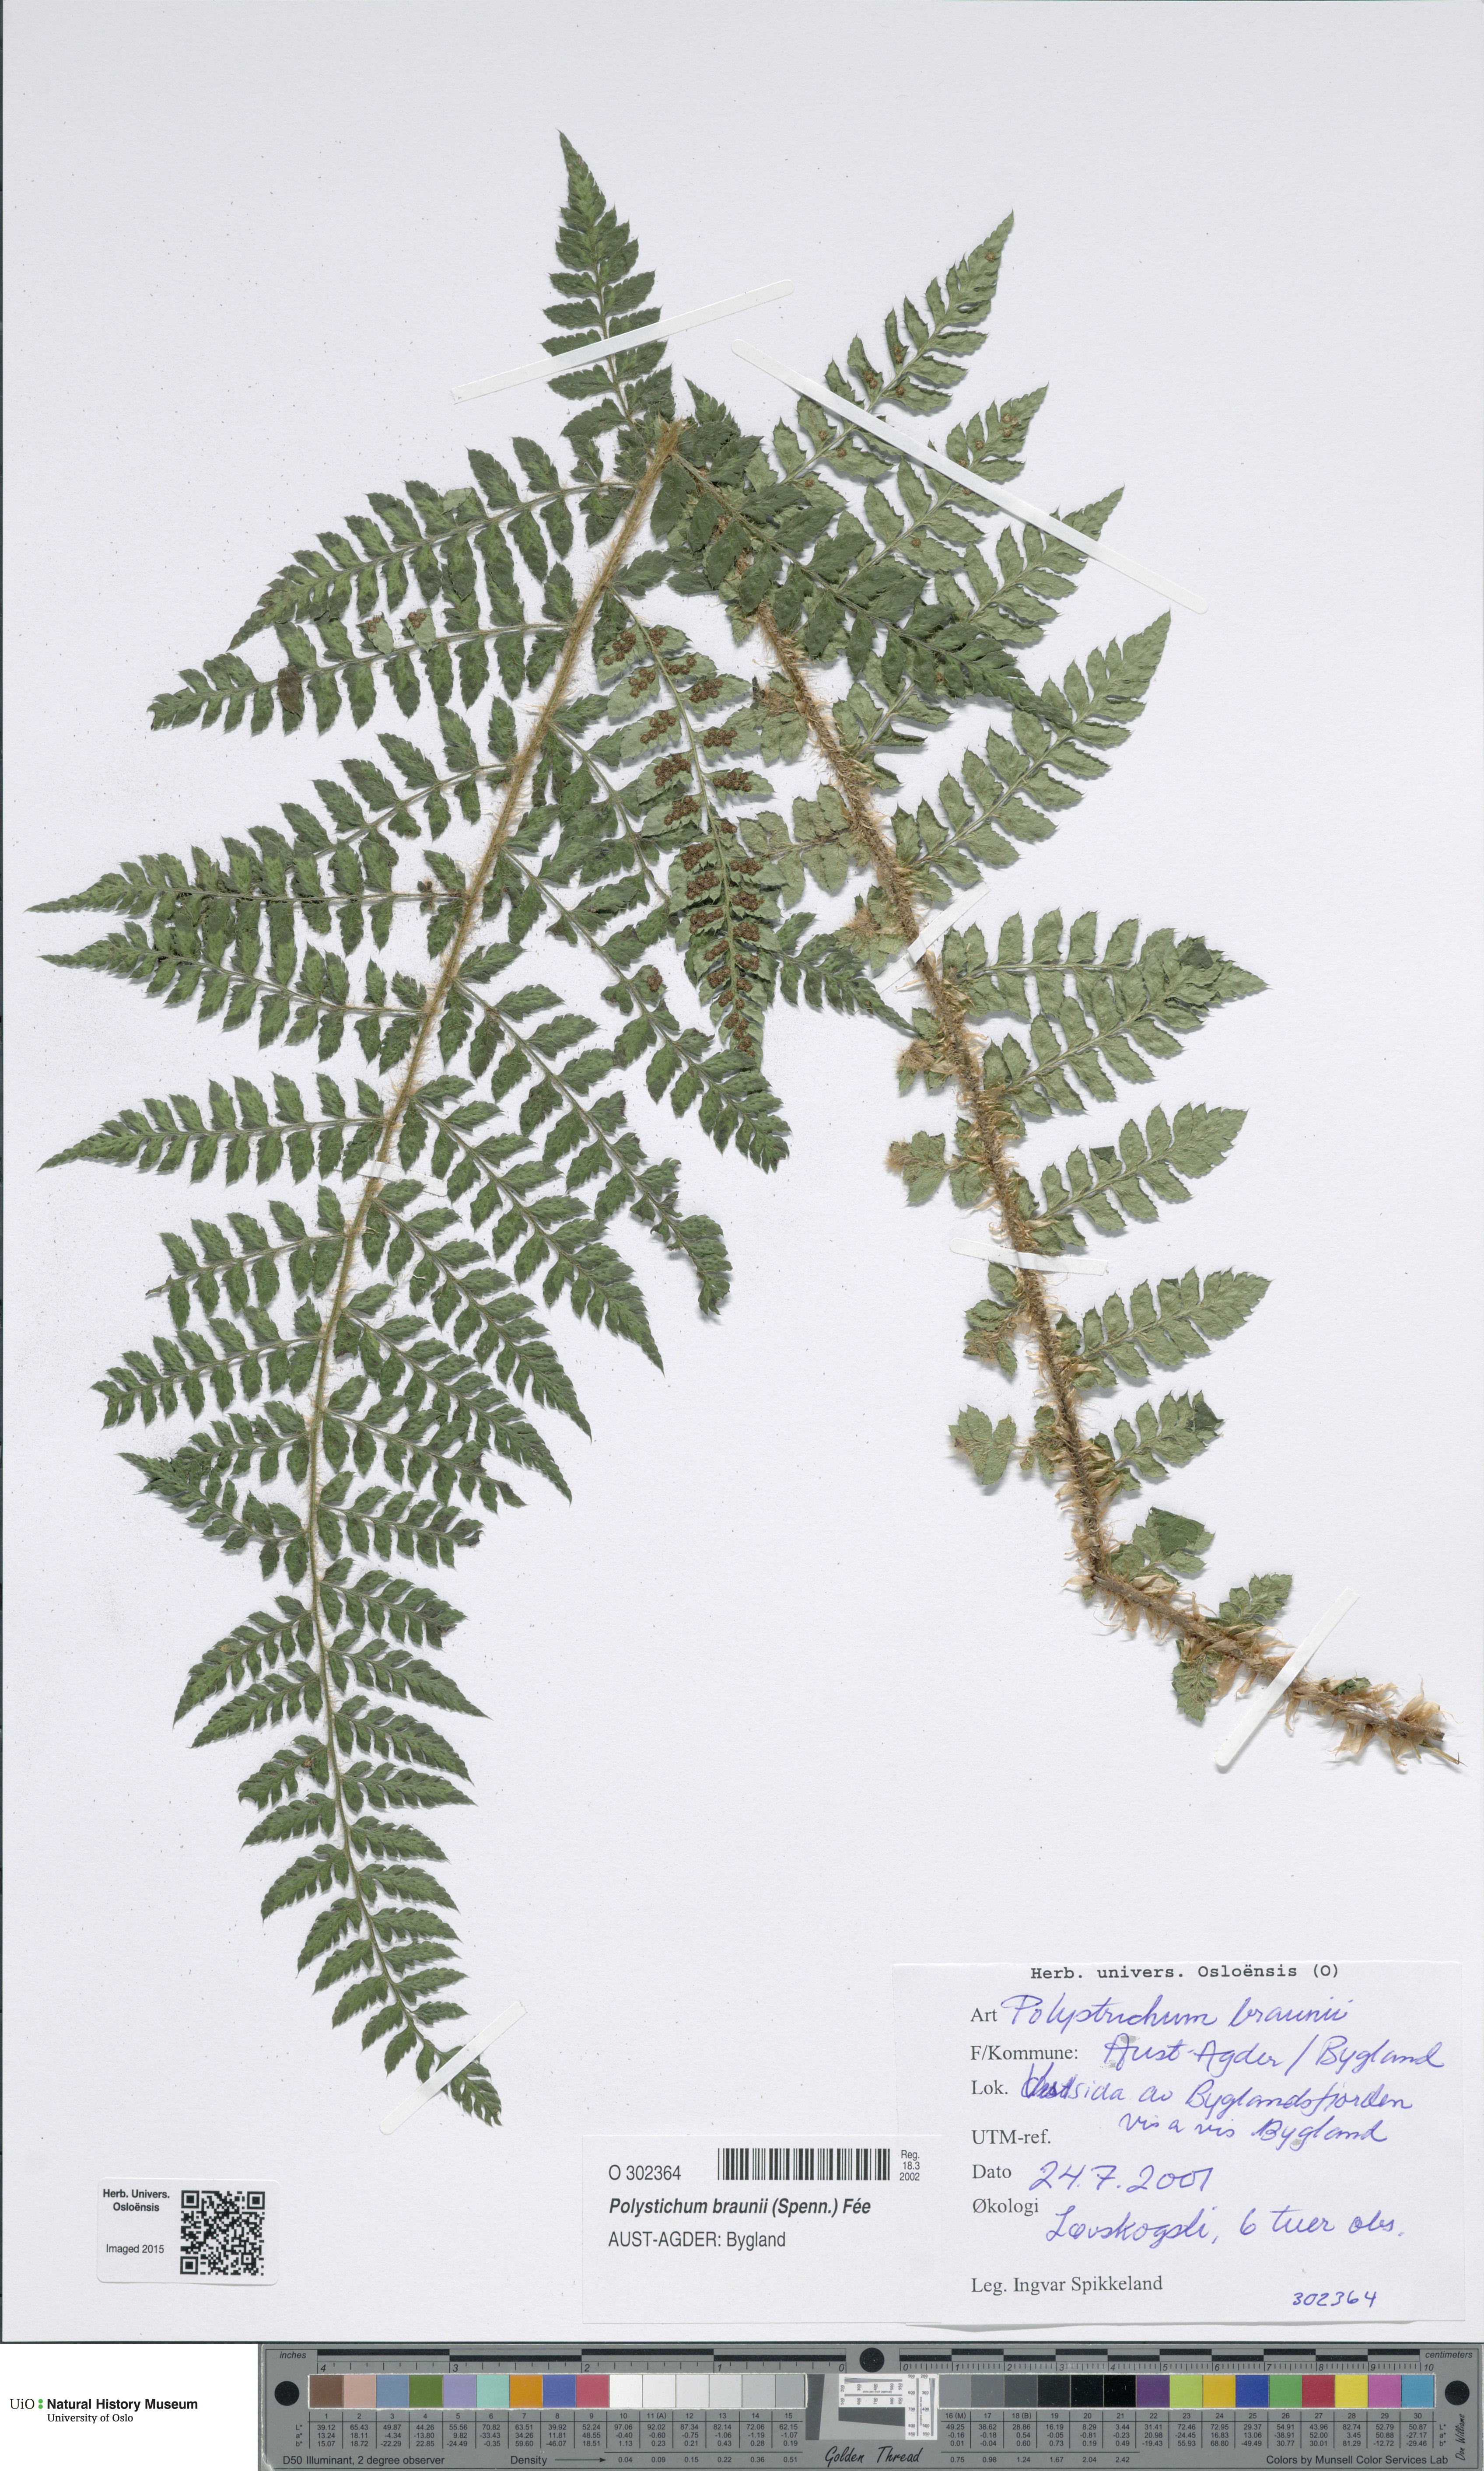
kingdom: Plantae
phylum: Tracheophyta
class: Polypodiopsida
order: Polypodiales
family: Dryopteridaceae
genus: Polystichum
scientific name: Polystichum braunii
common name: Braun's holly fern
